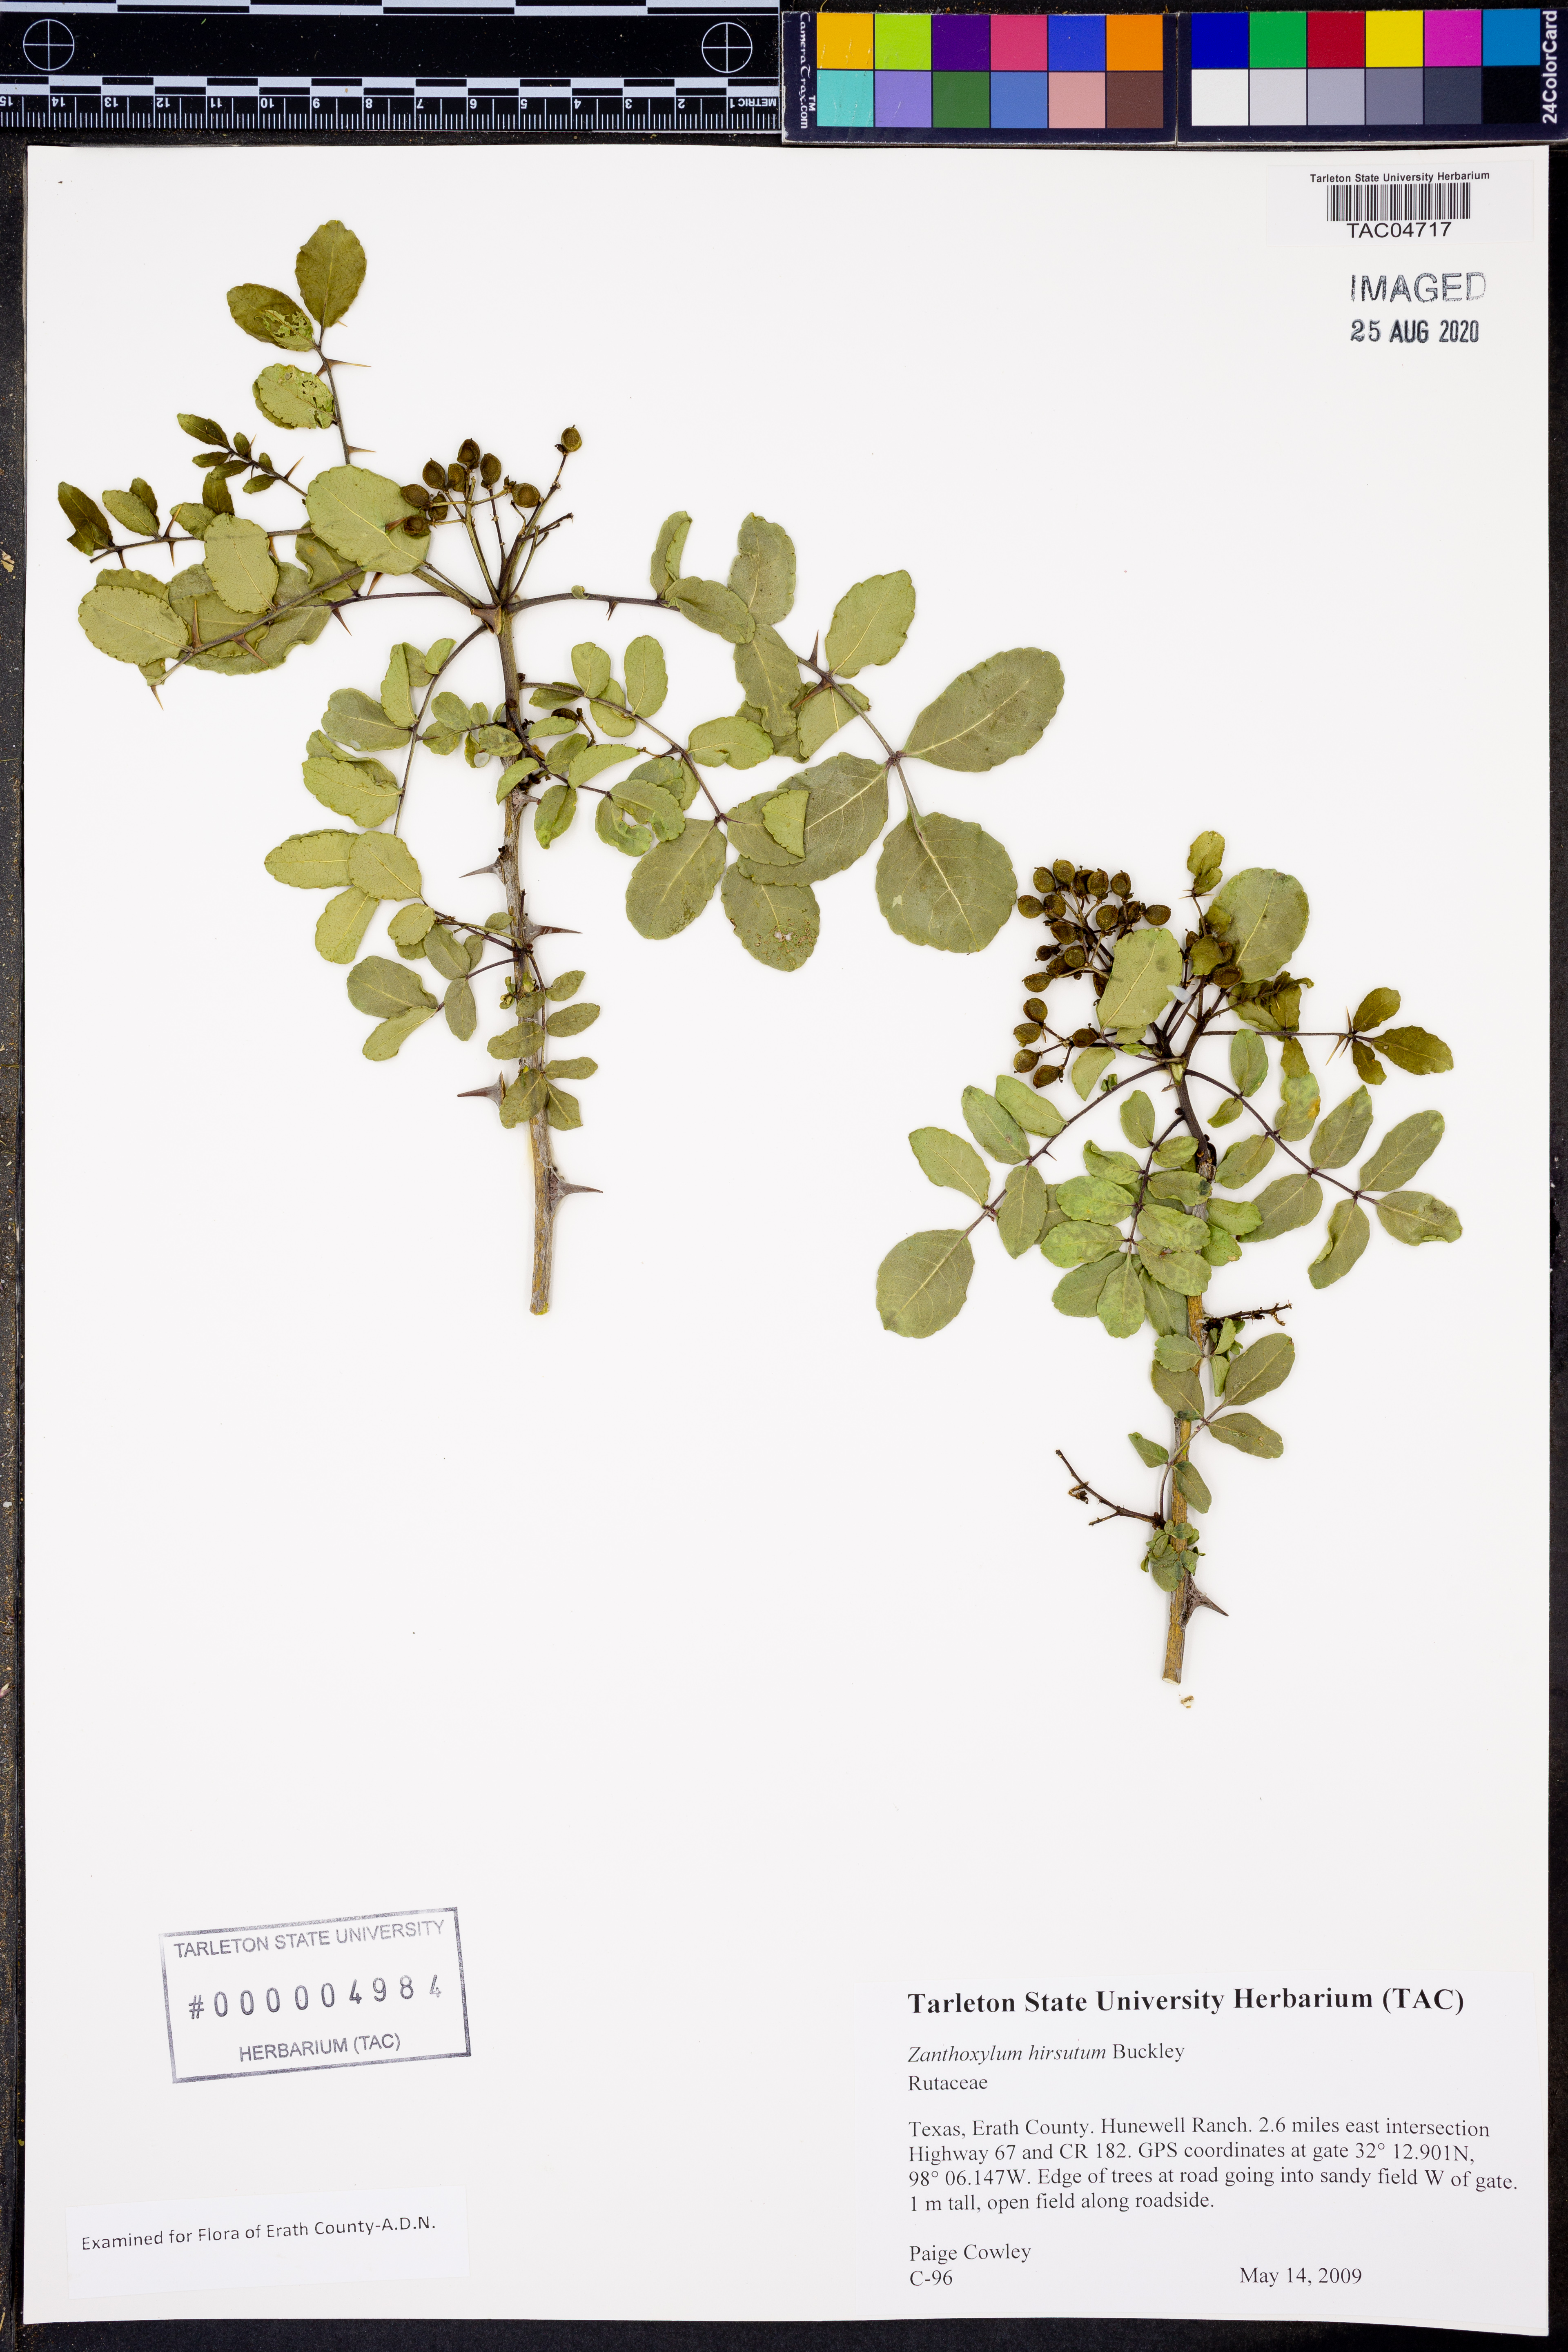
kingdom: Plantae
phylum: Tracheophyta
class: Magnoliopsida
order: Sapindales
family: Rutaceae
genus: Zanthoxylum
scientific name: Zanthoxylum clava-herculis
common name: Hercules'-club
